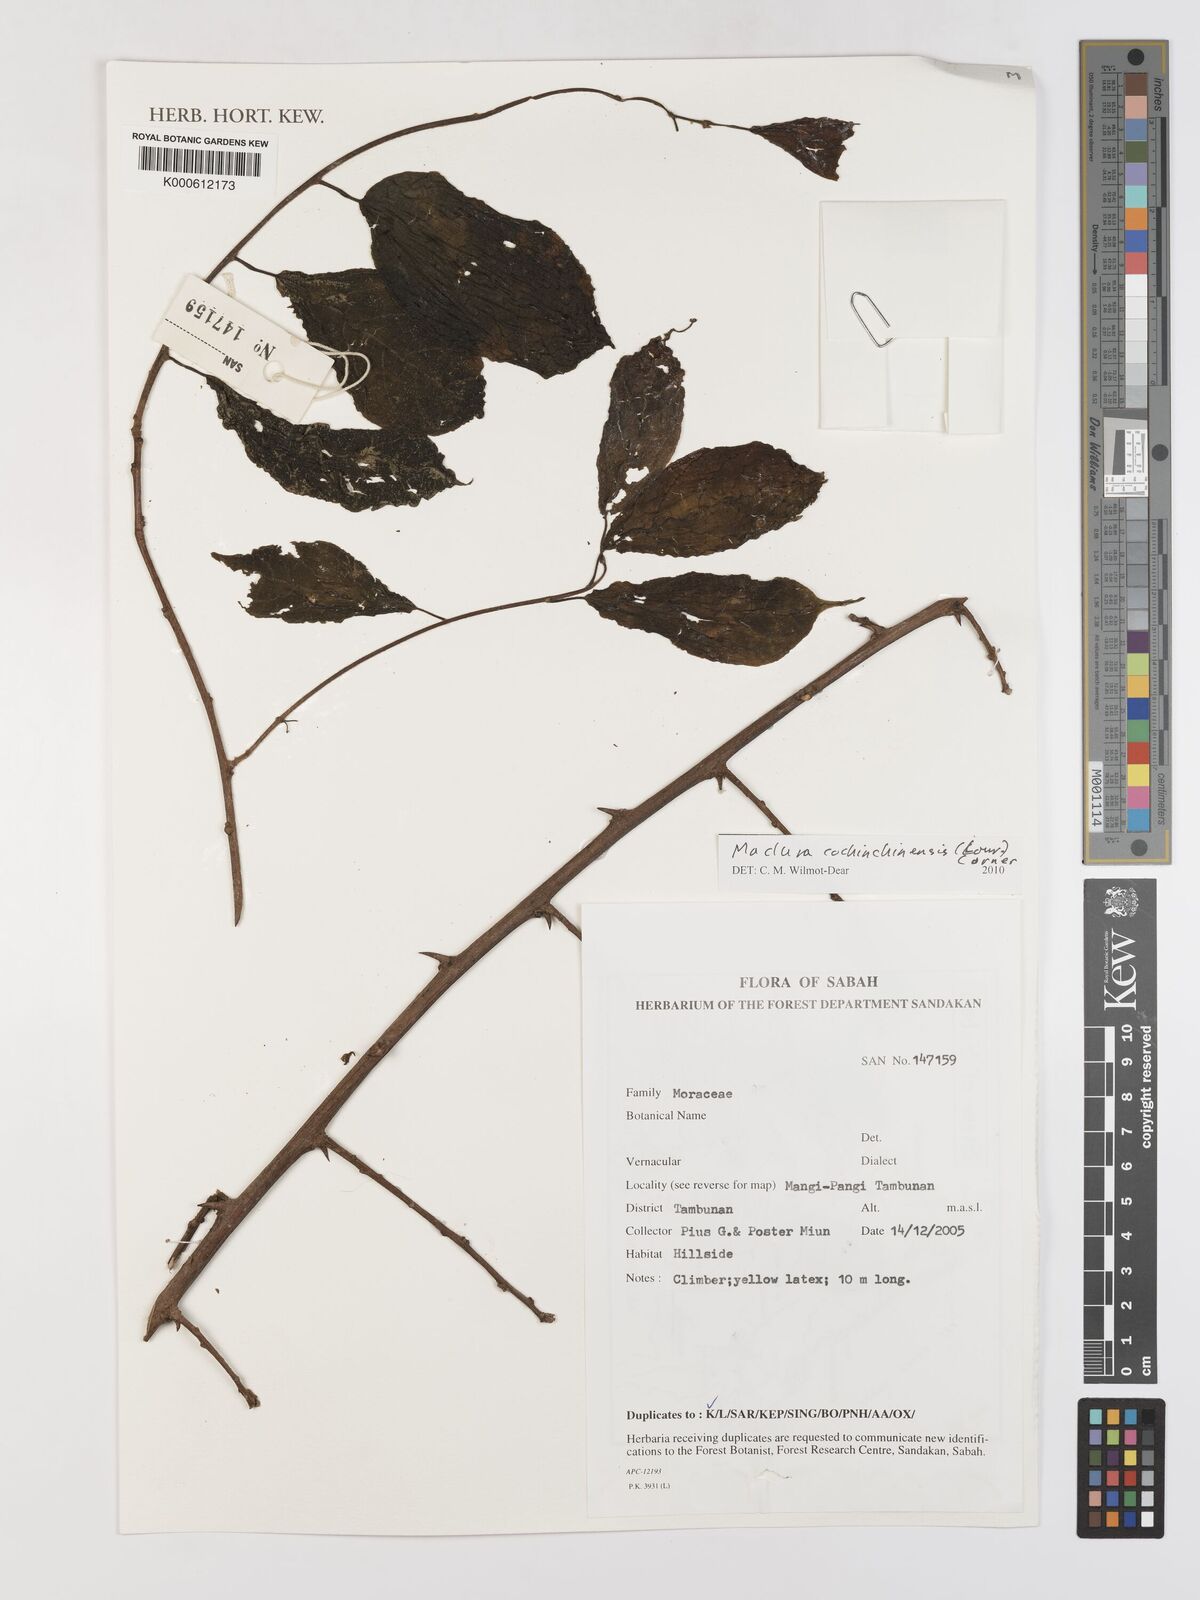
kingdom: Plantae
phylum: Tracheophyta
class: Magnoliopsida
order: Rosales
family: Moraceae
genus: Maclura
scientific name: Maclura
